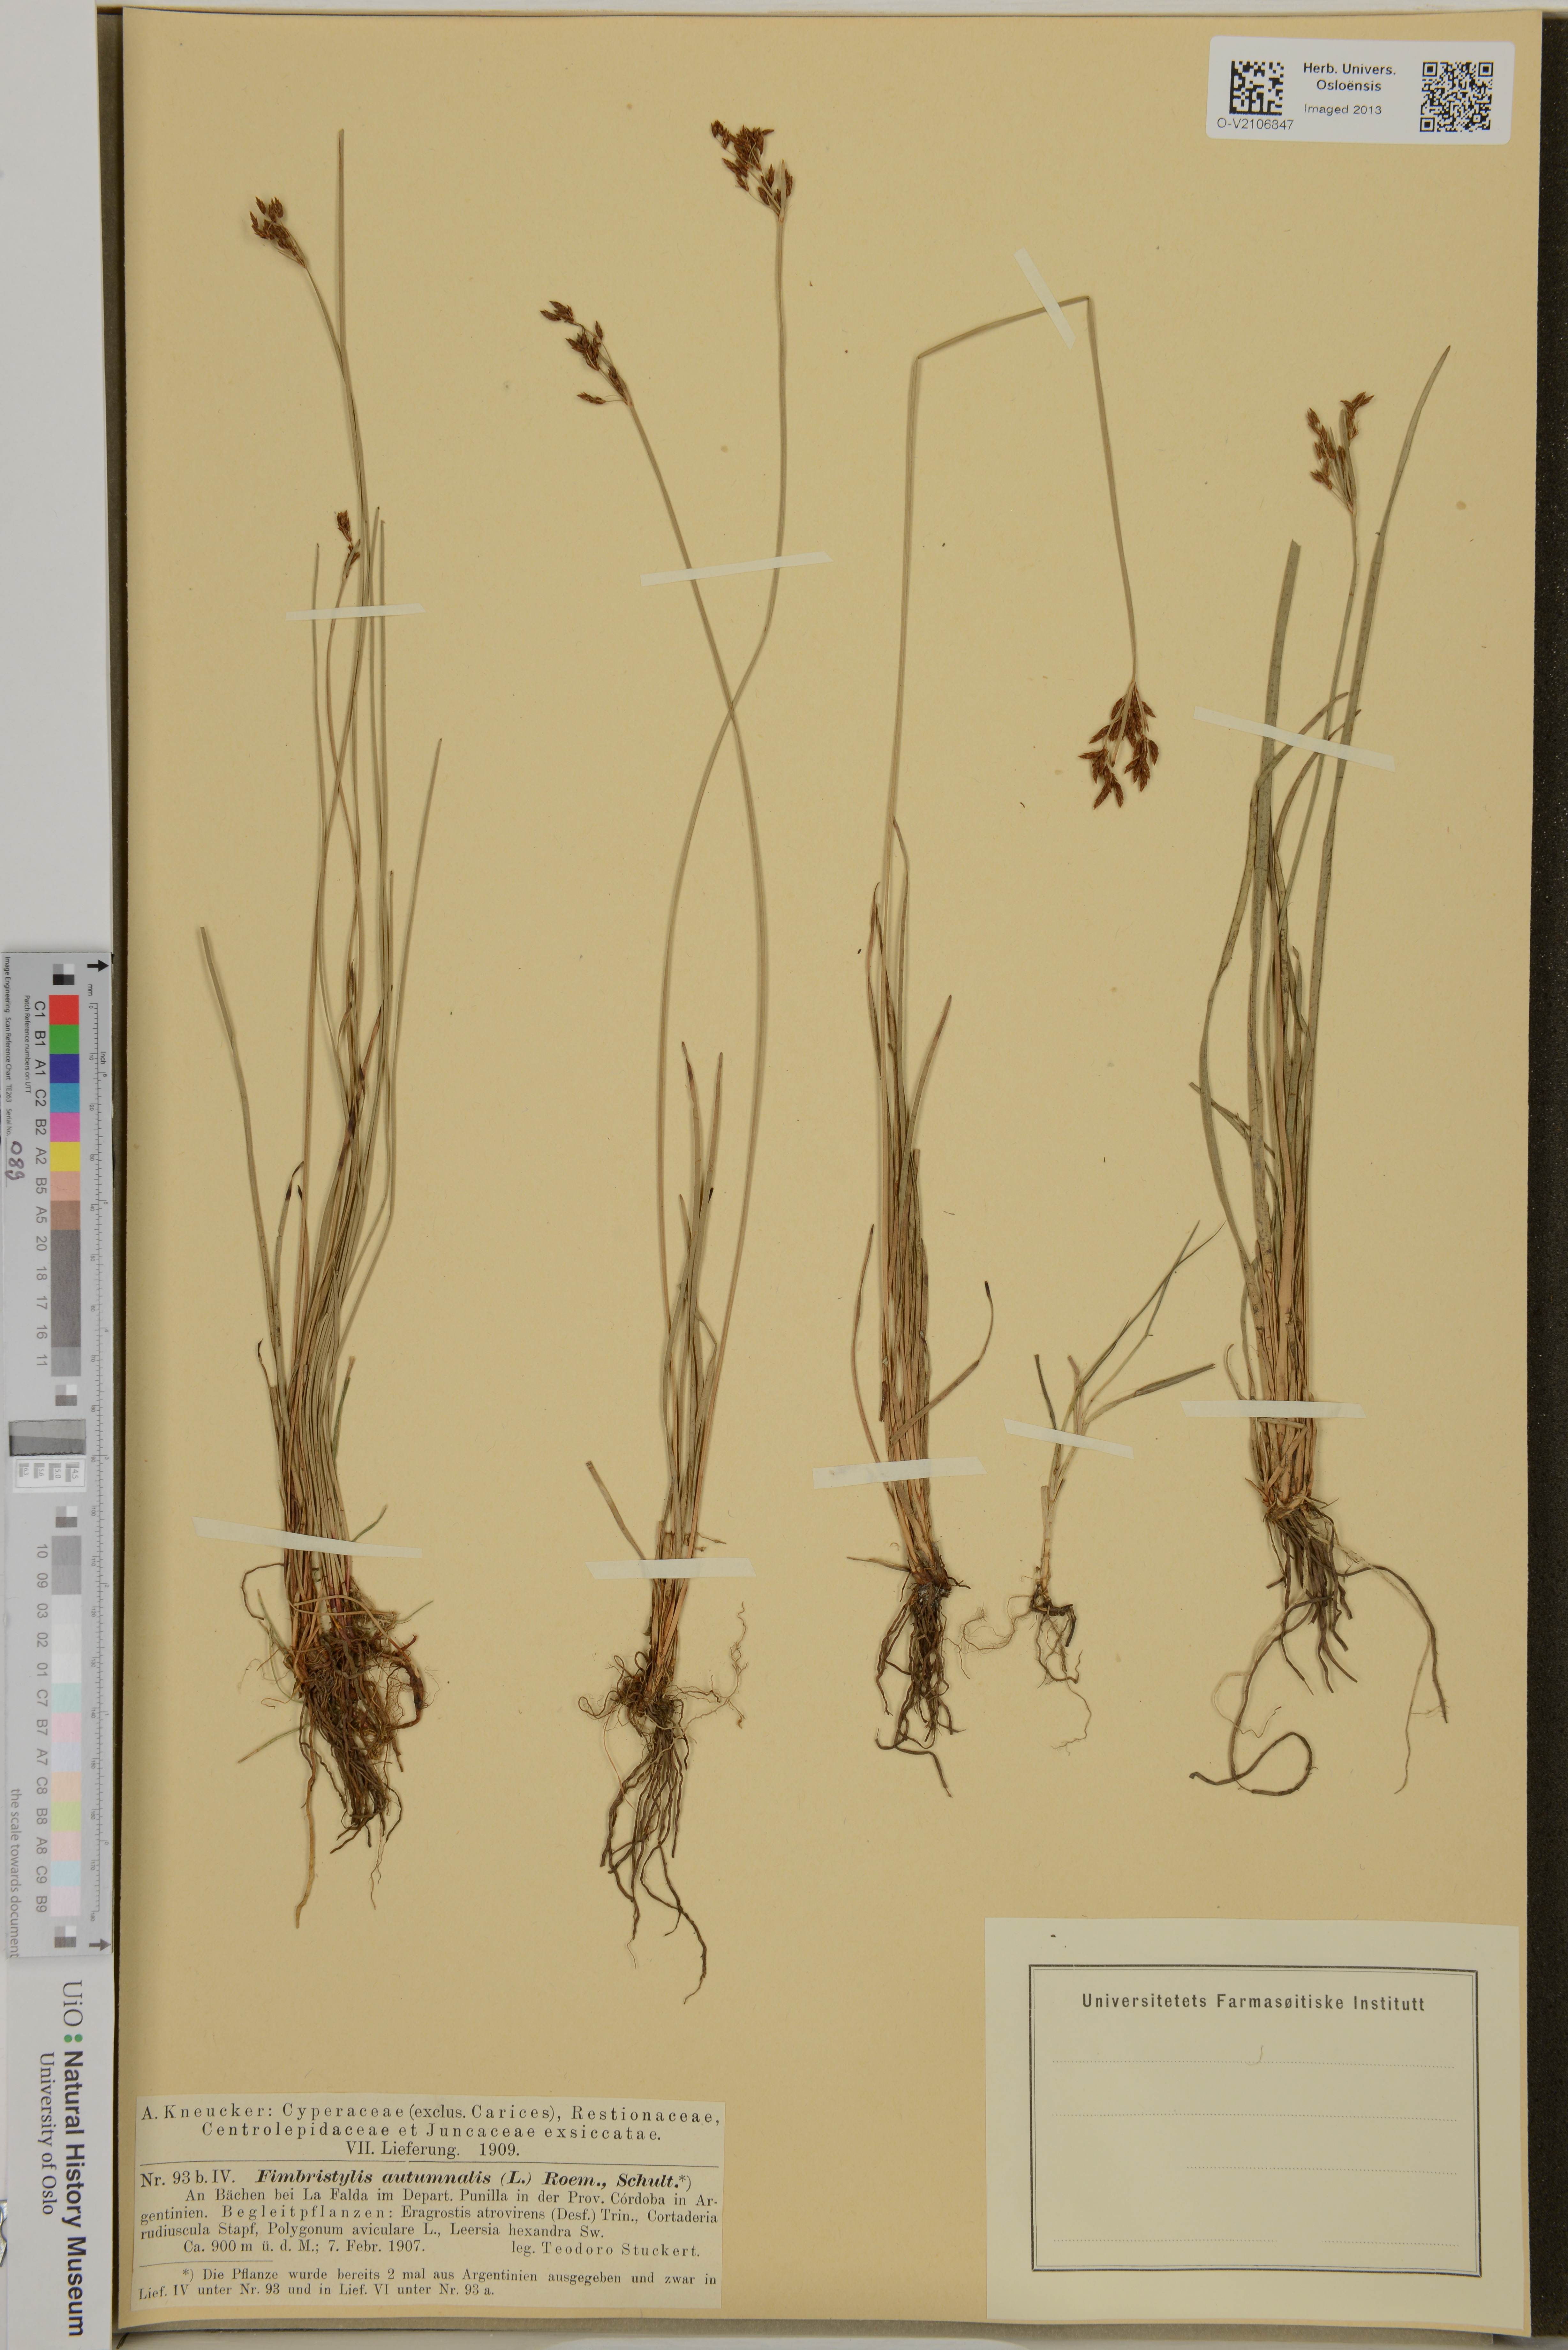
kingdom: Plantae
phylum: Tracheophyta
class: Liliopsida
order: Poales
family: Cyperaceae
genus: Fimbristylis
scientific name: Fimbristylis autumnalis
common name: Slender fimbristylis
